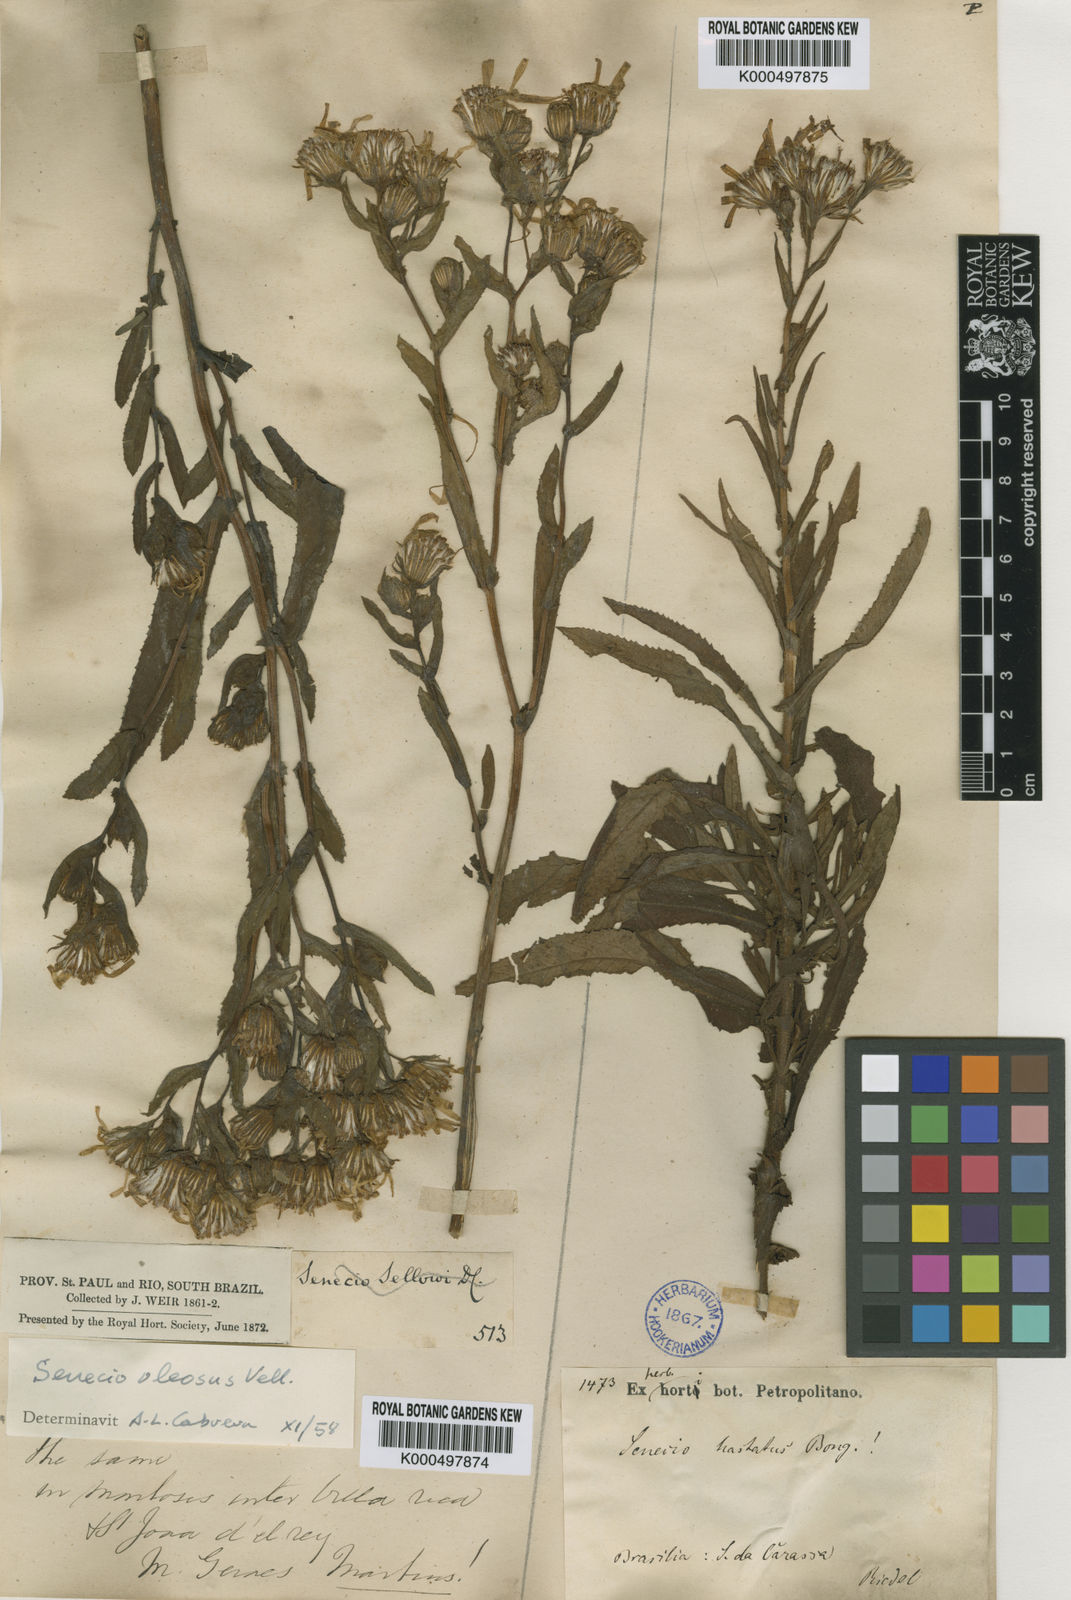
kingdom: Plantae
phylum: Tracheophyta
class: Magnoliopsida
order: Asterales
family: Asteraceae
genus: Senecio
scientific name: Senecio oleosus
